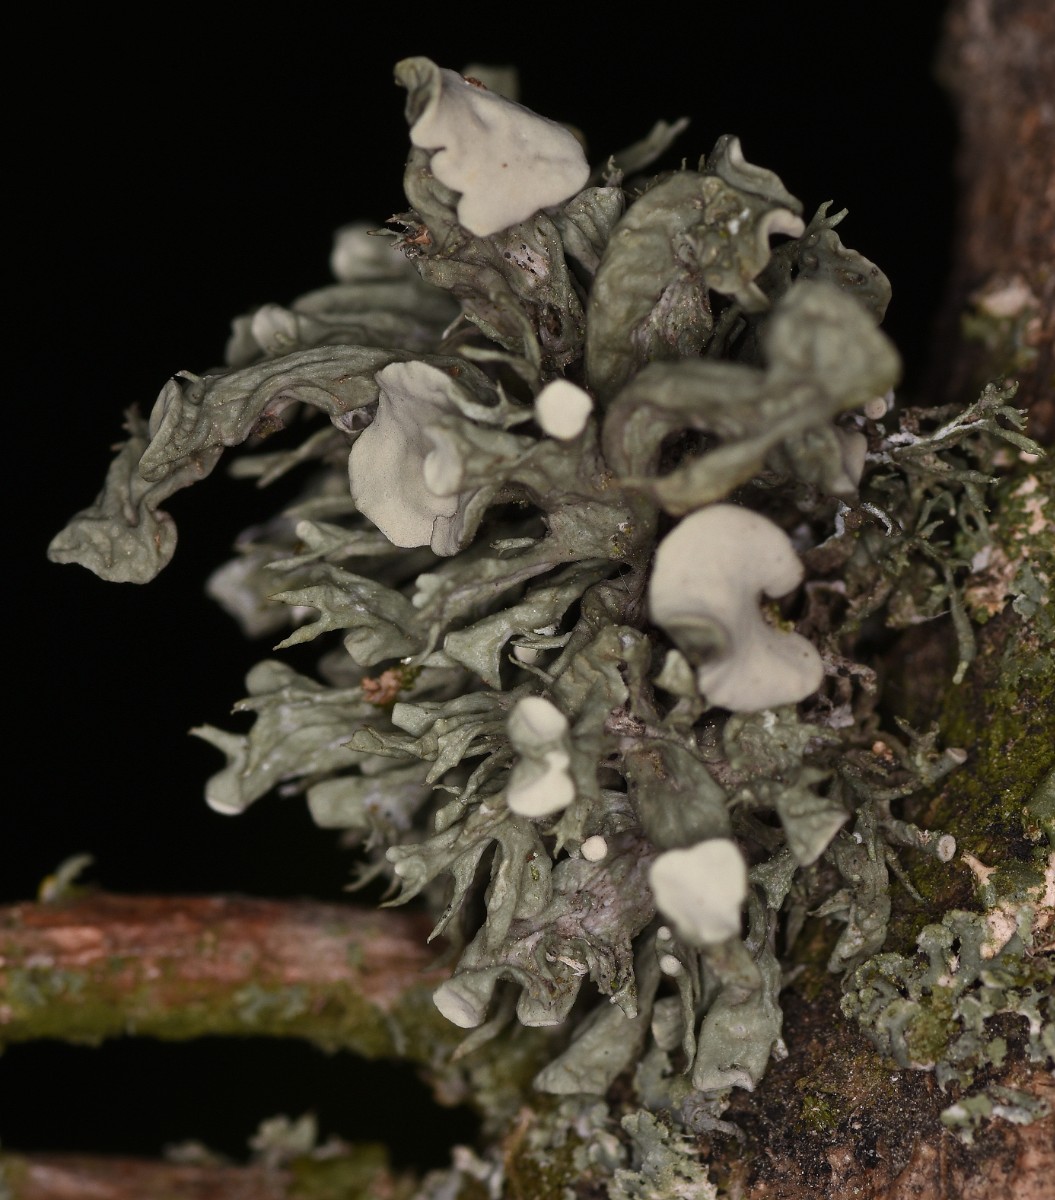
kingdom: Fungi
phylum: Ascomycota
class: Lecanoromycetes
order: Lecanorales
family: Ramalinaceae
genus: Ramalina
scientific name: Ramalina fastigiata
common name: tue-grenlav
